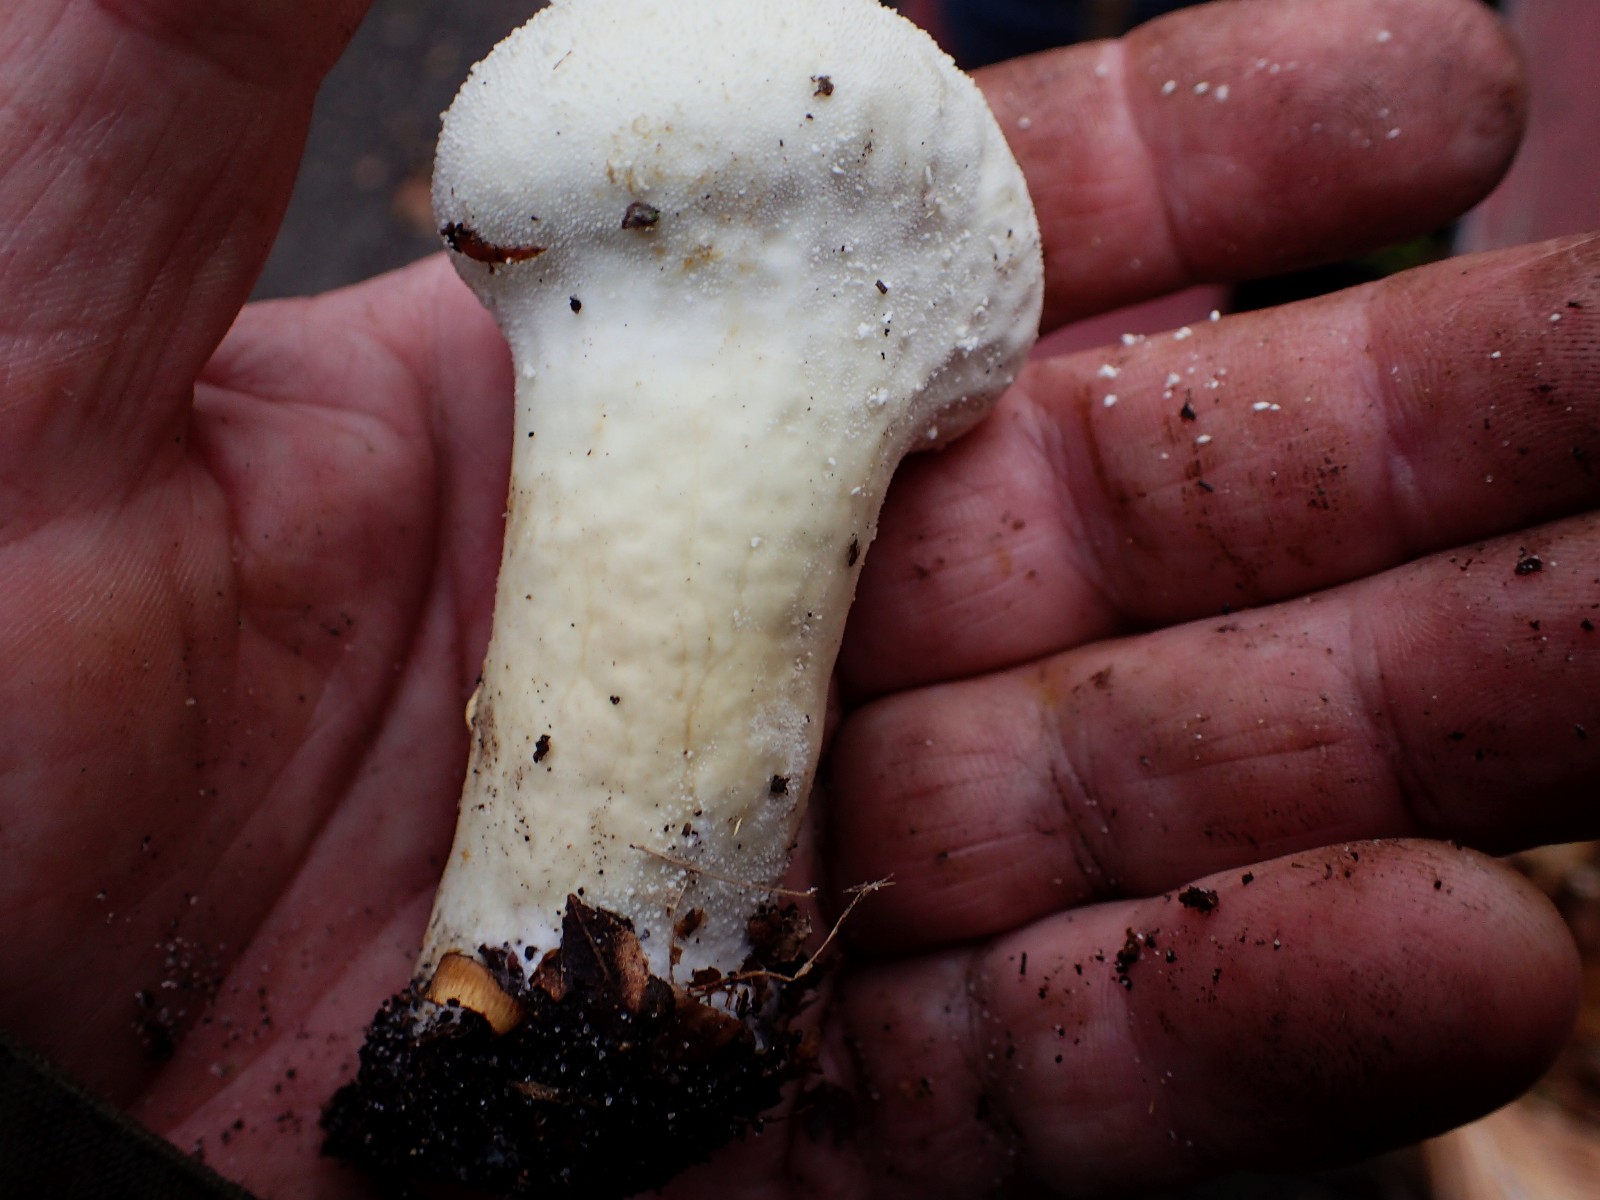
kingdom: Fungi
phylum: Basidiomycota
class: Agaricomycetes
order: Agaricales
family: Lycoperdaceae
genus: Lycoperdon
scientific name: Lycoperdon excipuliforme
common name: højstokket støvbold
